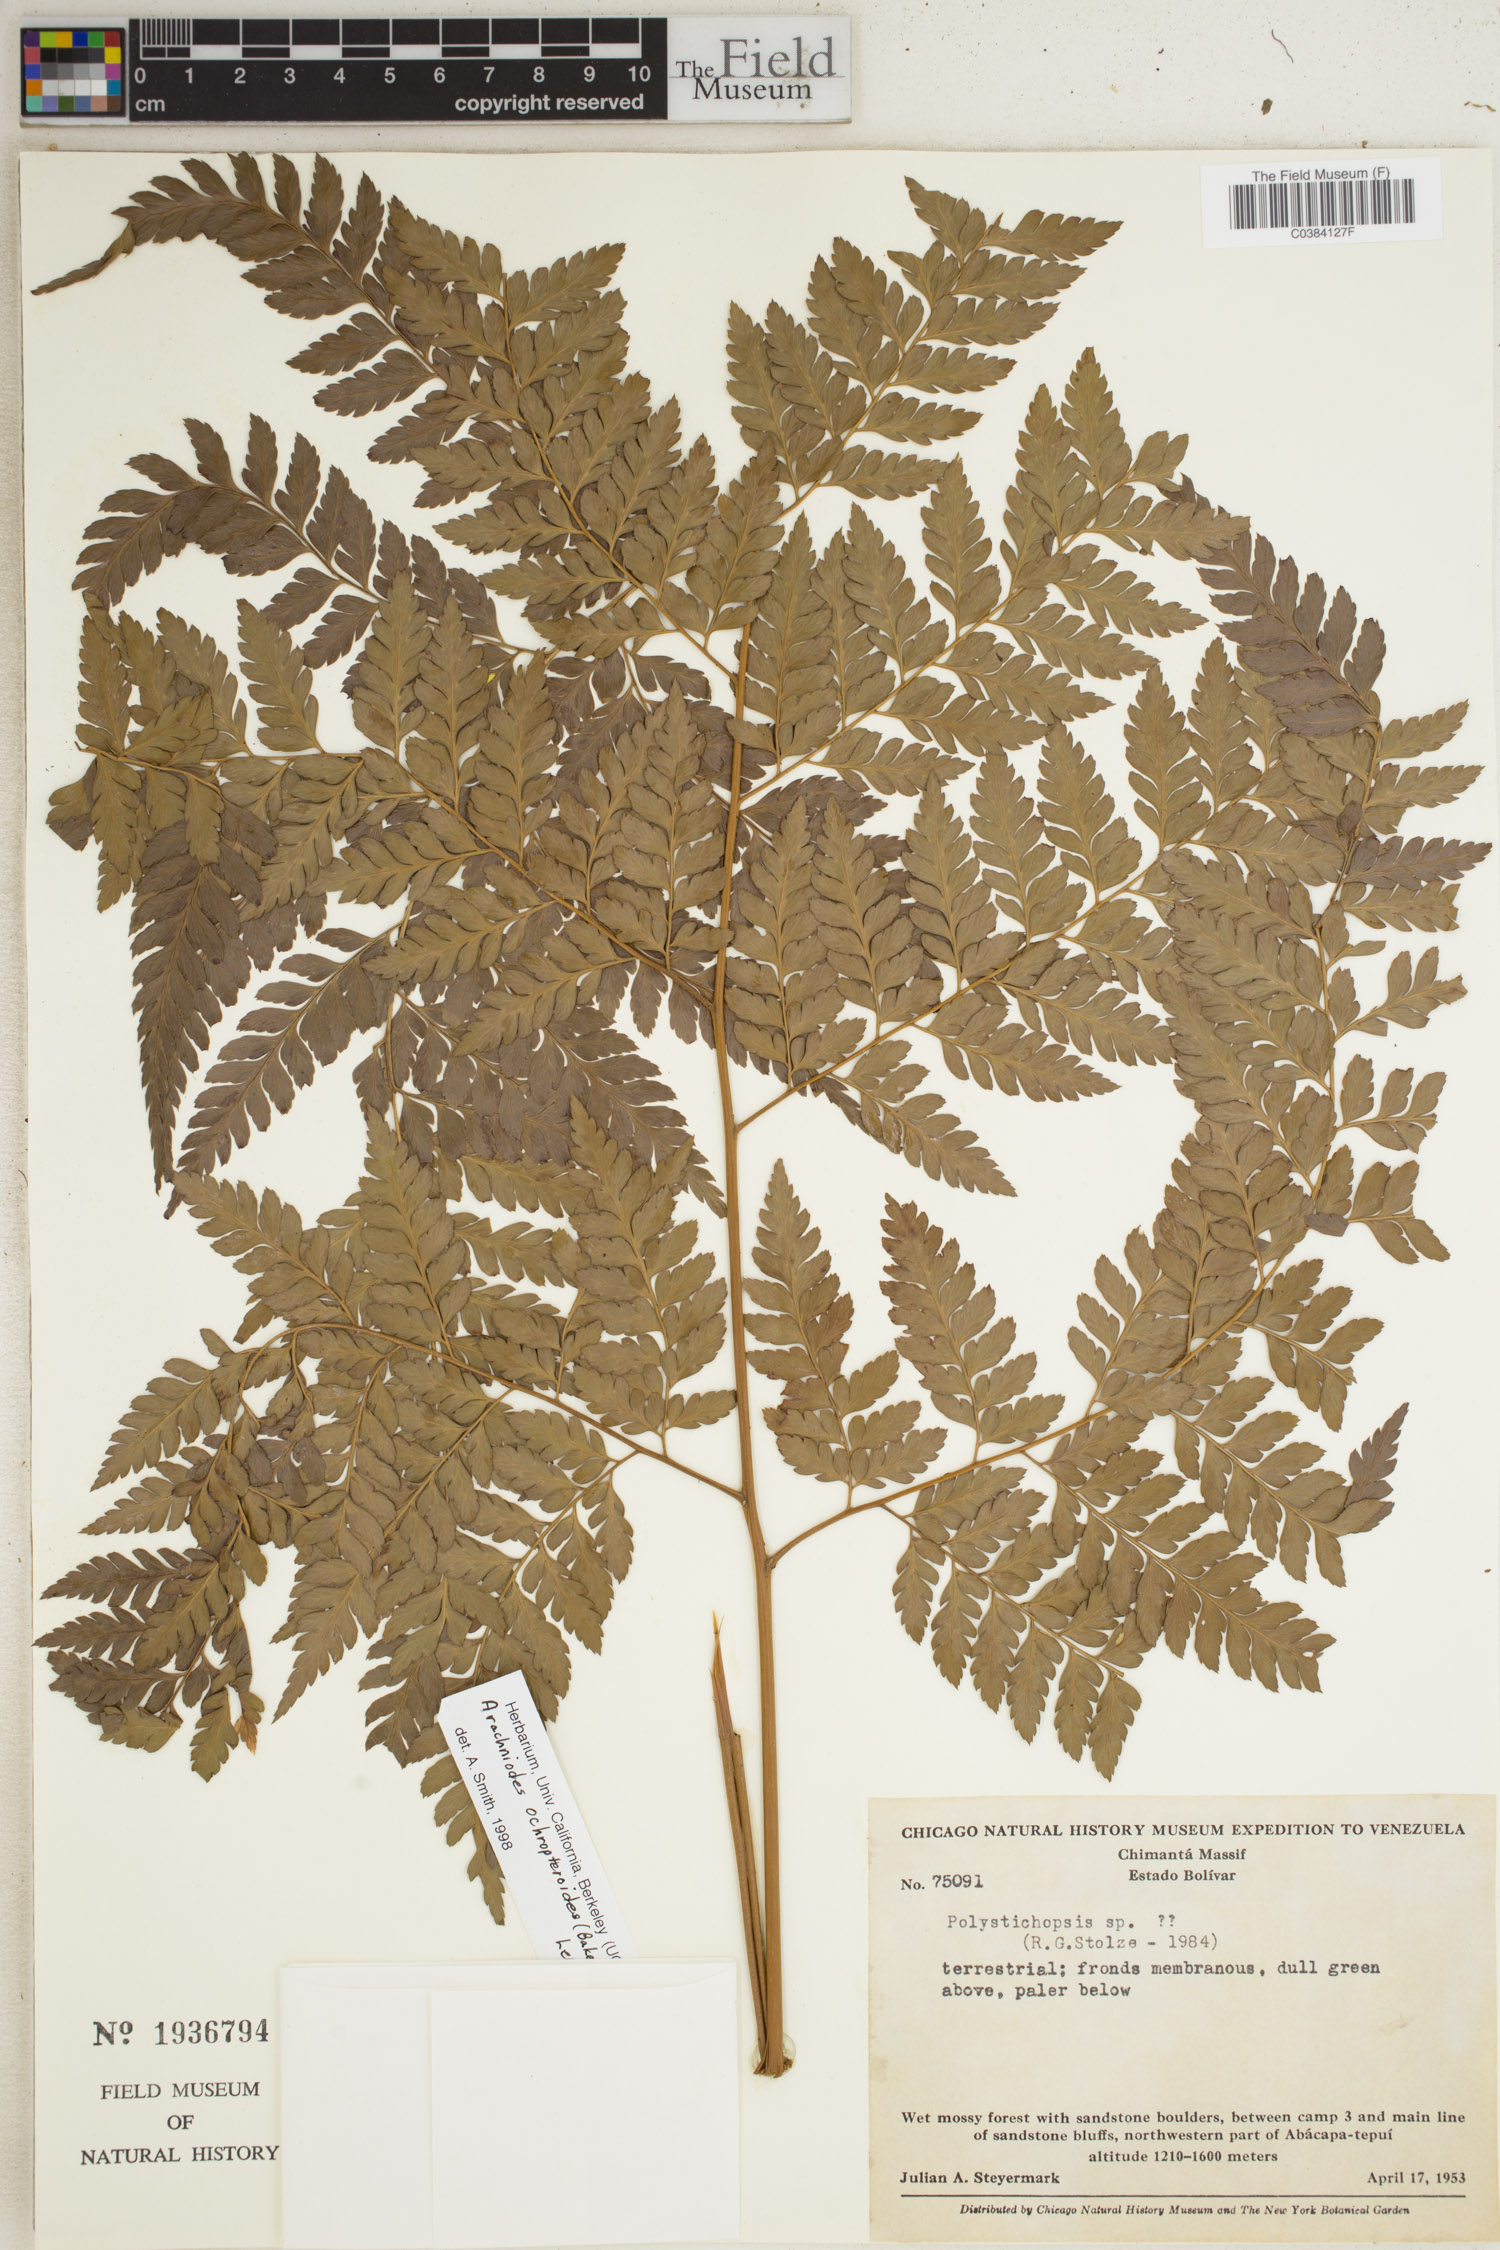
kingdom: Plantae
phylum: Tracheophyta
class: Polypodiopsida
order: Polypodiales
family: Dryopteridaceae
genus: Olfersia
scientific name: Olfersia ochropteroides
